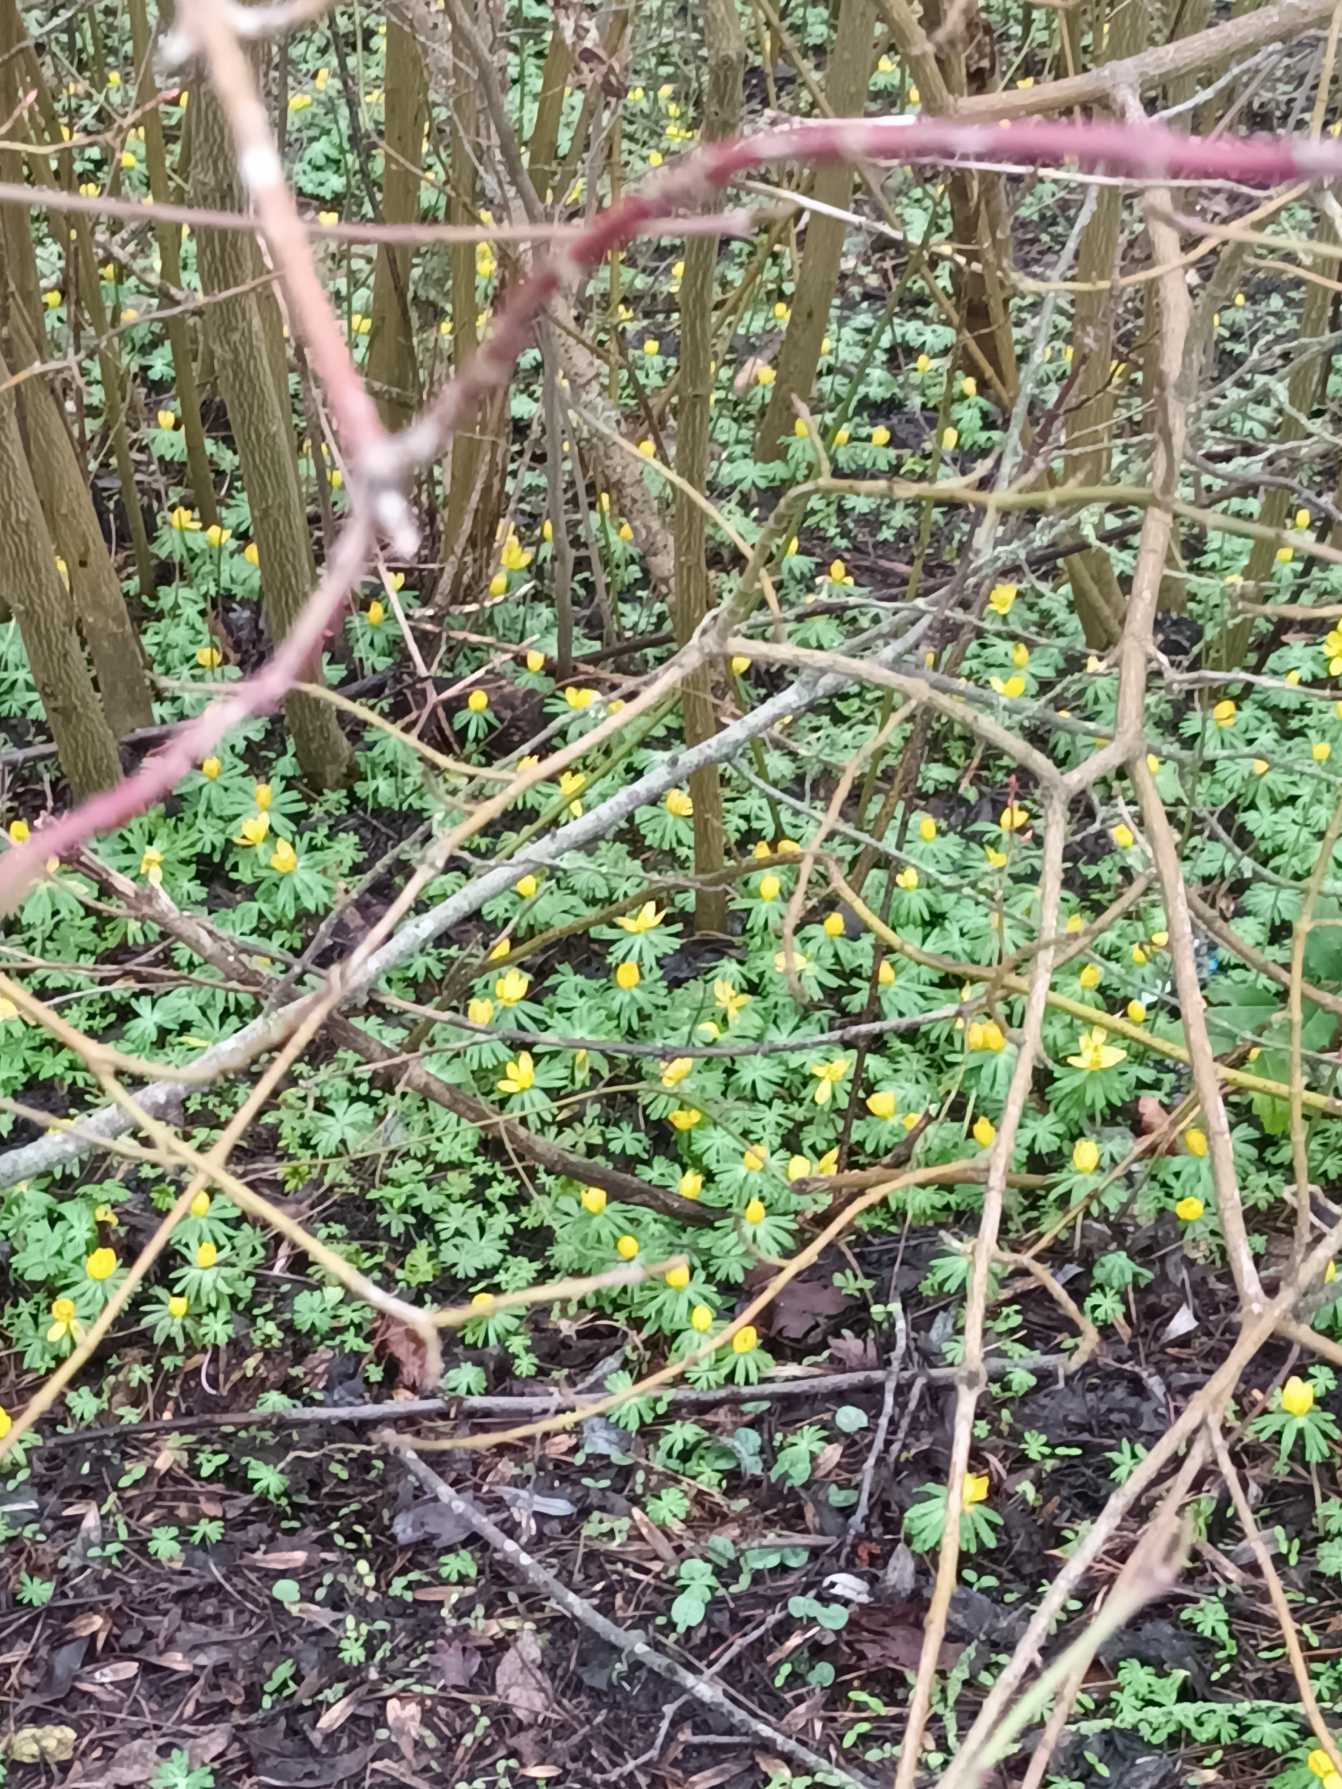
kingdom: Plantae
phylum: Tracheophyta
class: Magnoliopsida
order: Ranunculales
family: Ranunculaceae
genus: Eranthis
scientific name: Eranthis hyemalis
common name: Erantis
